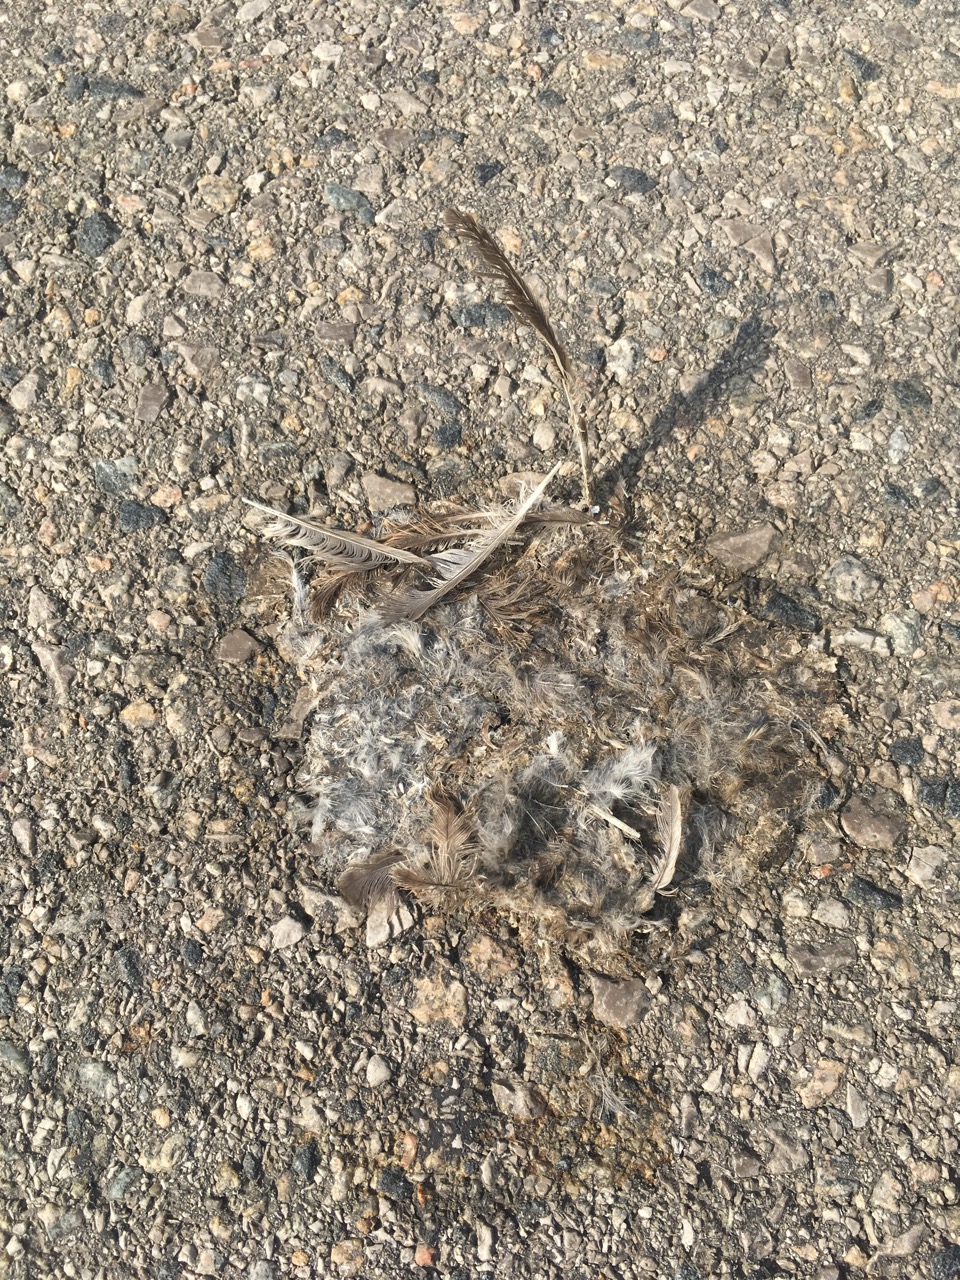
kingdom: Animalia
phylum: Chordata
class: Aves
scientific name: Aves
